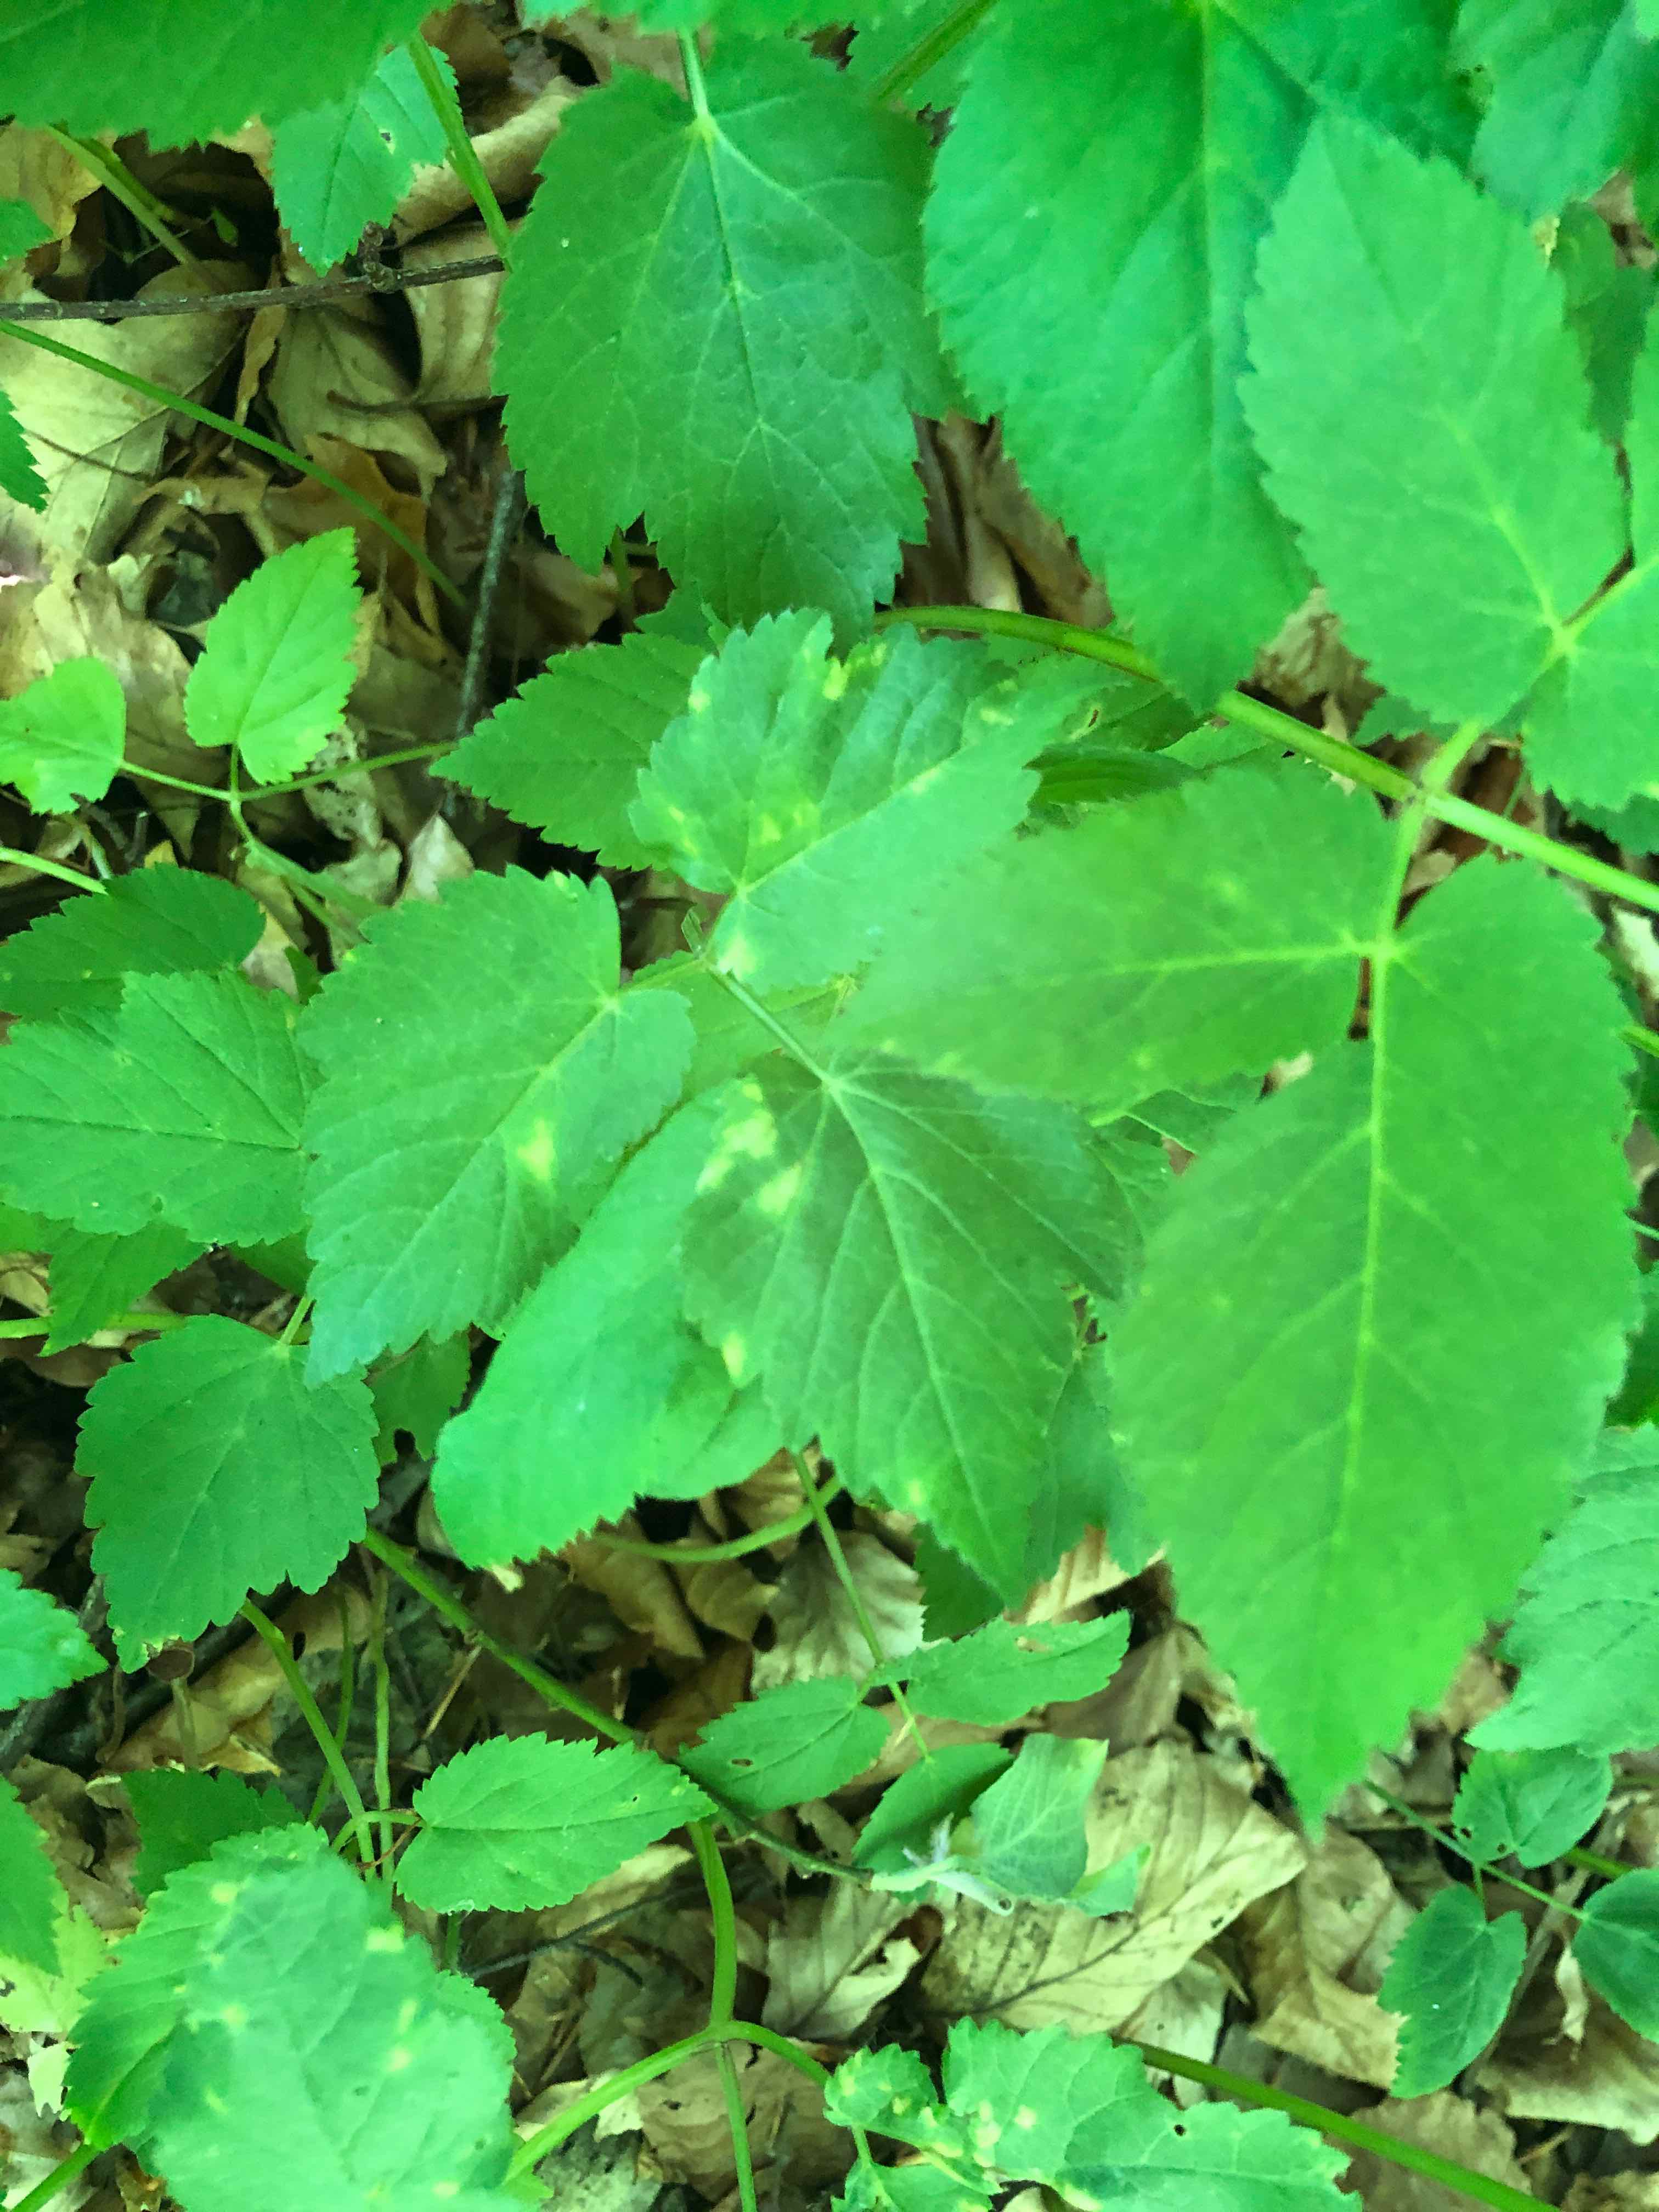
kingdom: Chromista
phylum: Oomycota
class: Peronosporea
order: Peronosporales
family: Peronosporaceae
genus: Peronospora
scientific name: Peronospora crustosa
